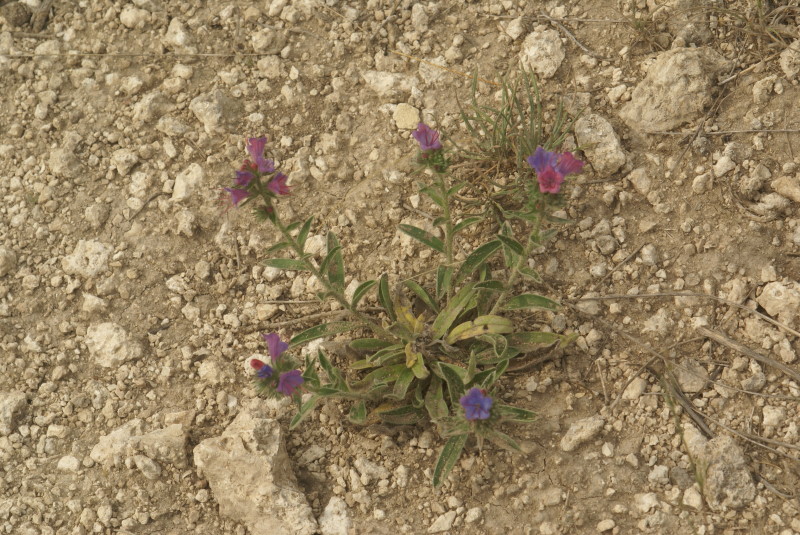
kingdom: Plantae
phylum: Tracheophyta
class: Magnoliopsida
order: Boraginales
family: Boraginaceae
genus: Echium
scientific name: Echium vulgare
